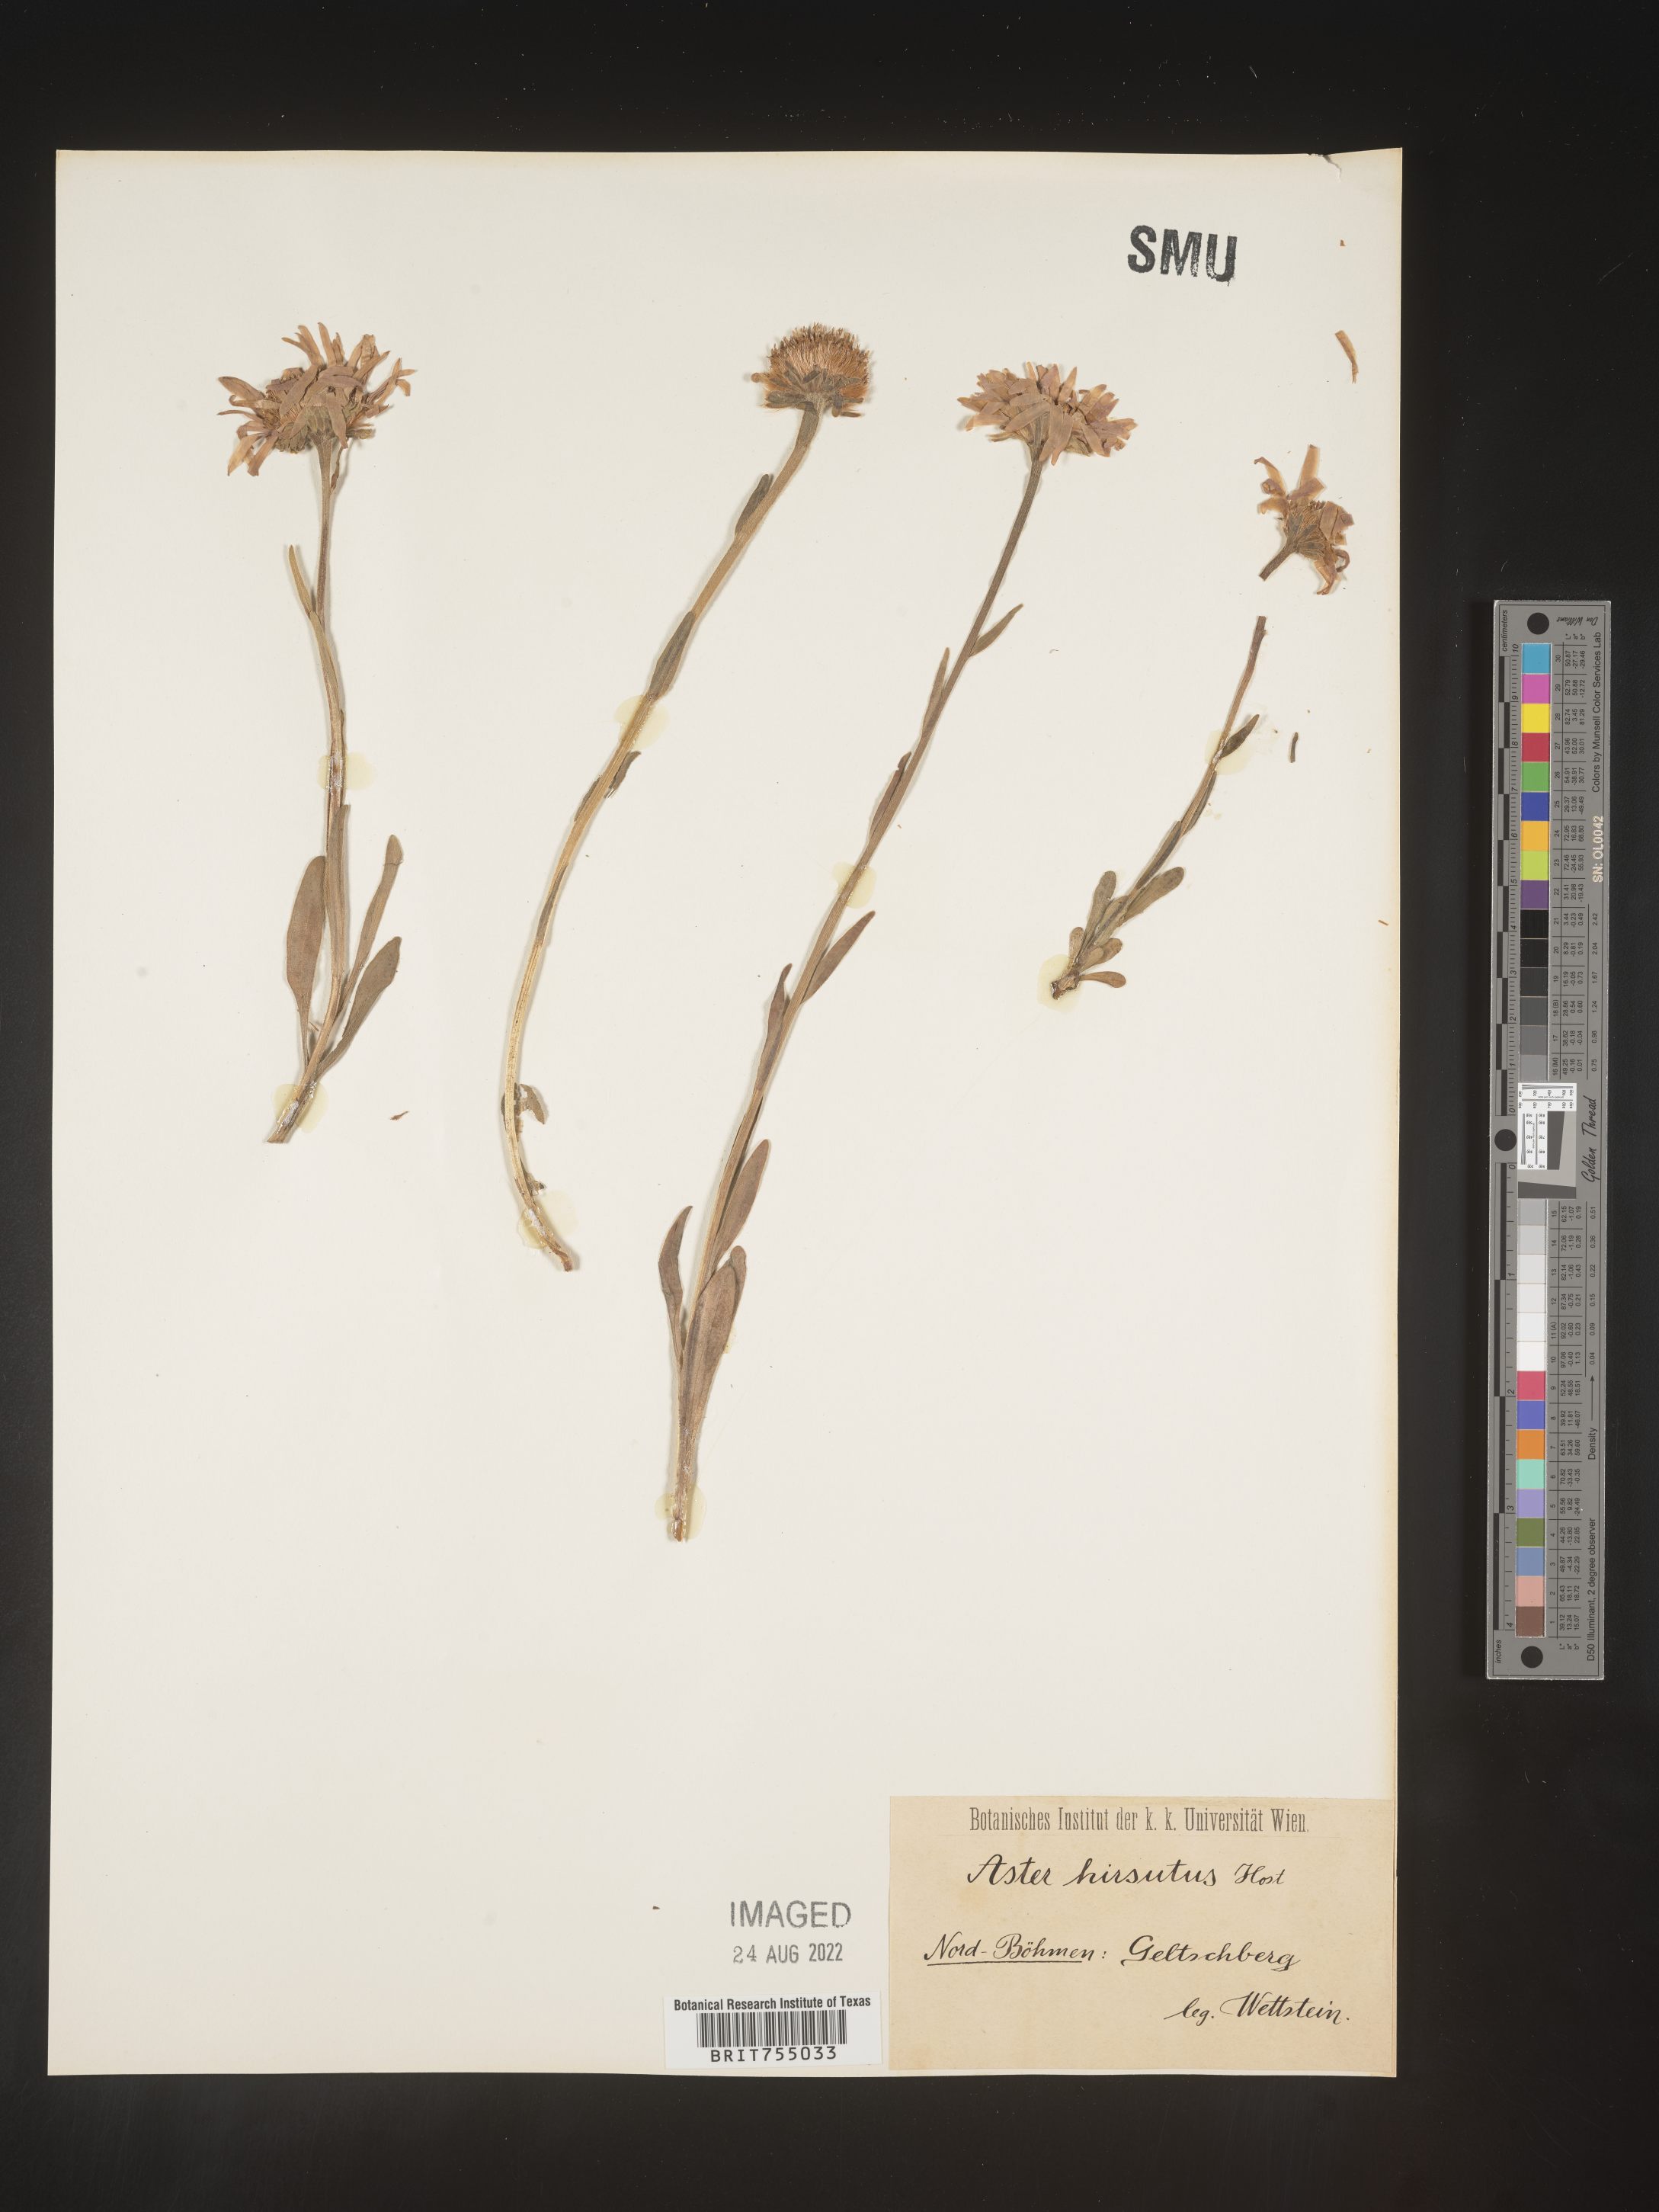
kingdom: Plantae
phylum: Tracheophyta
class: Magnoliopsida
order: Asterales
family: Asteraceae
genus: Symphyotrichum
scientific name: Symphyotrichum
